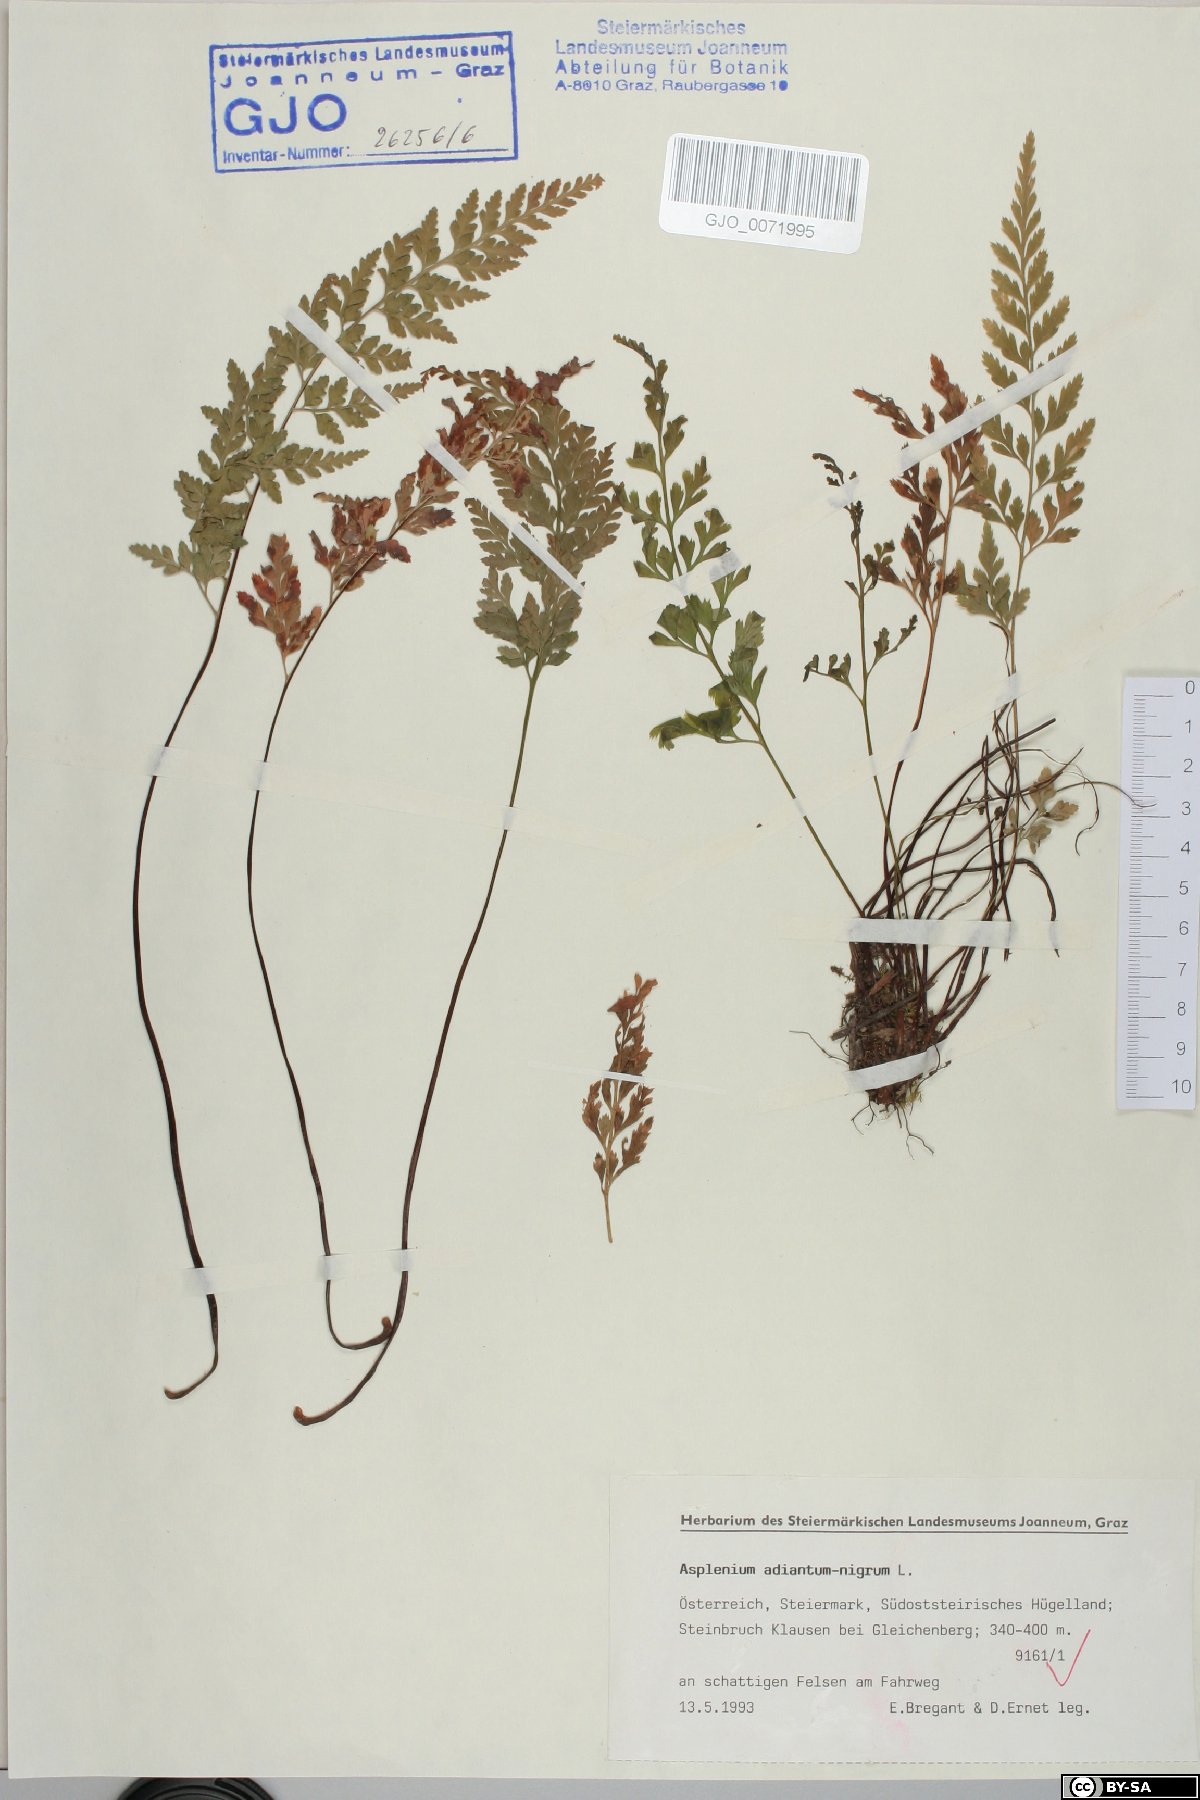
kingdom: Plantae
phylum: Tracheophyta
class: Polypodiopsida
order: Polypodiales
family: Aspleniaceae
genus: Asplenium
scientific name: Asplenium adiantum-nigrum
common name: Black spleenwort
